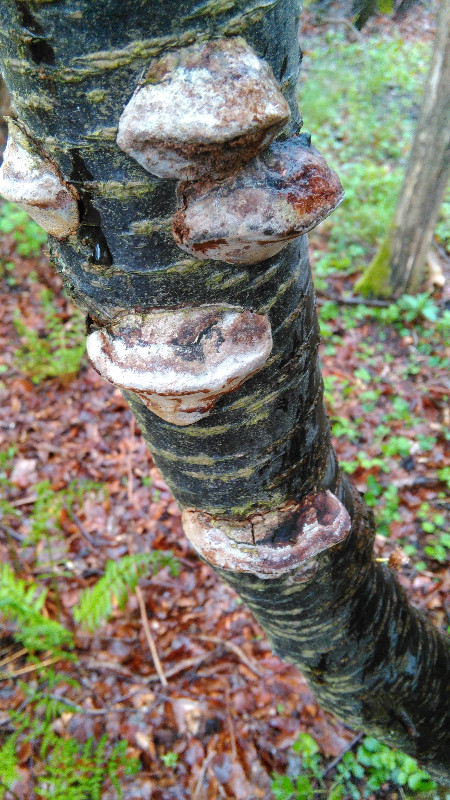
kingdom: Fungi
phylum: Basidiomycota
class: Agaricomycetes
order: Hymenochaetales
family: Hymenochaetaceae
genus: Phellinus
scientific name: Phellinus pomaceus
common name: blomme-ildporesvamp
